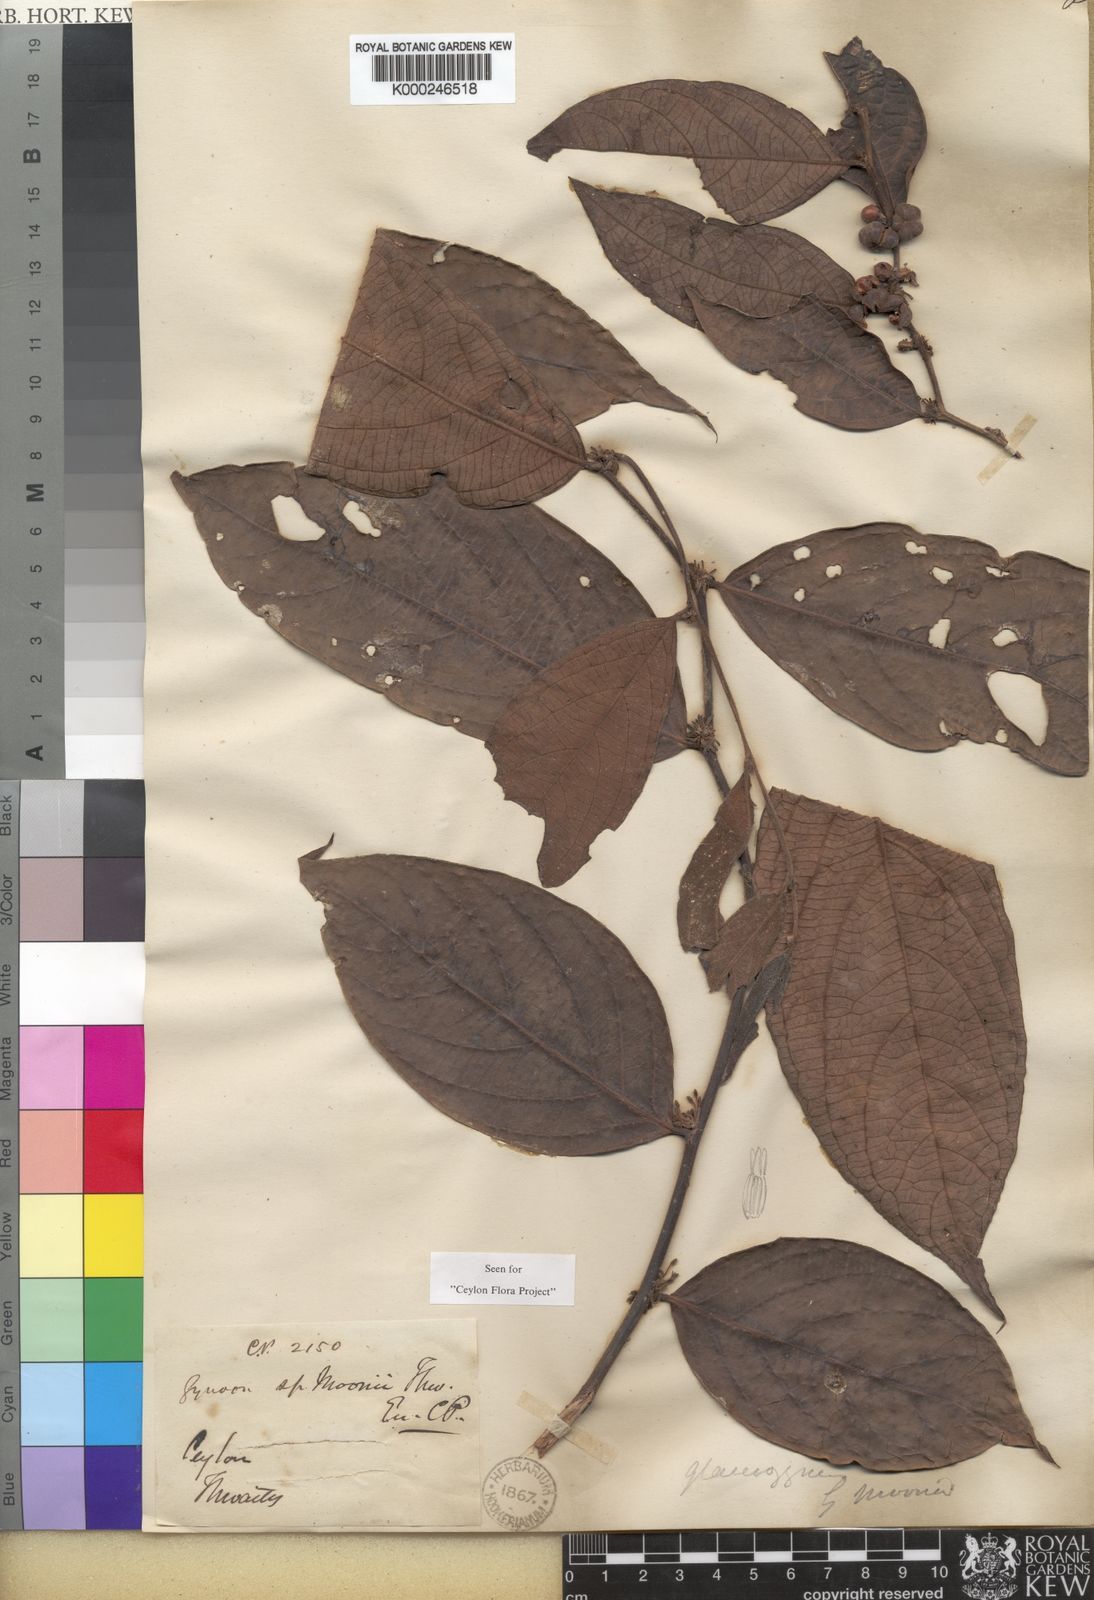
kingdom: Plantae
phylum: Tracheophyta
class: Magnoliopsida
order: Malpighiales
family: Phyllanthaceae
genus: Glochidion
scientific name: Glochidion moonii
